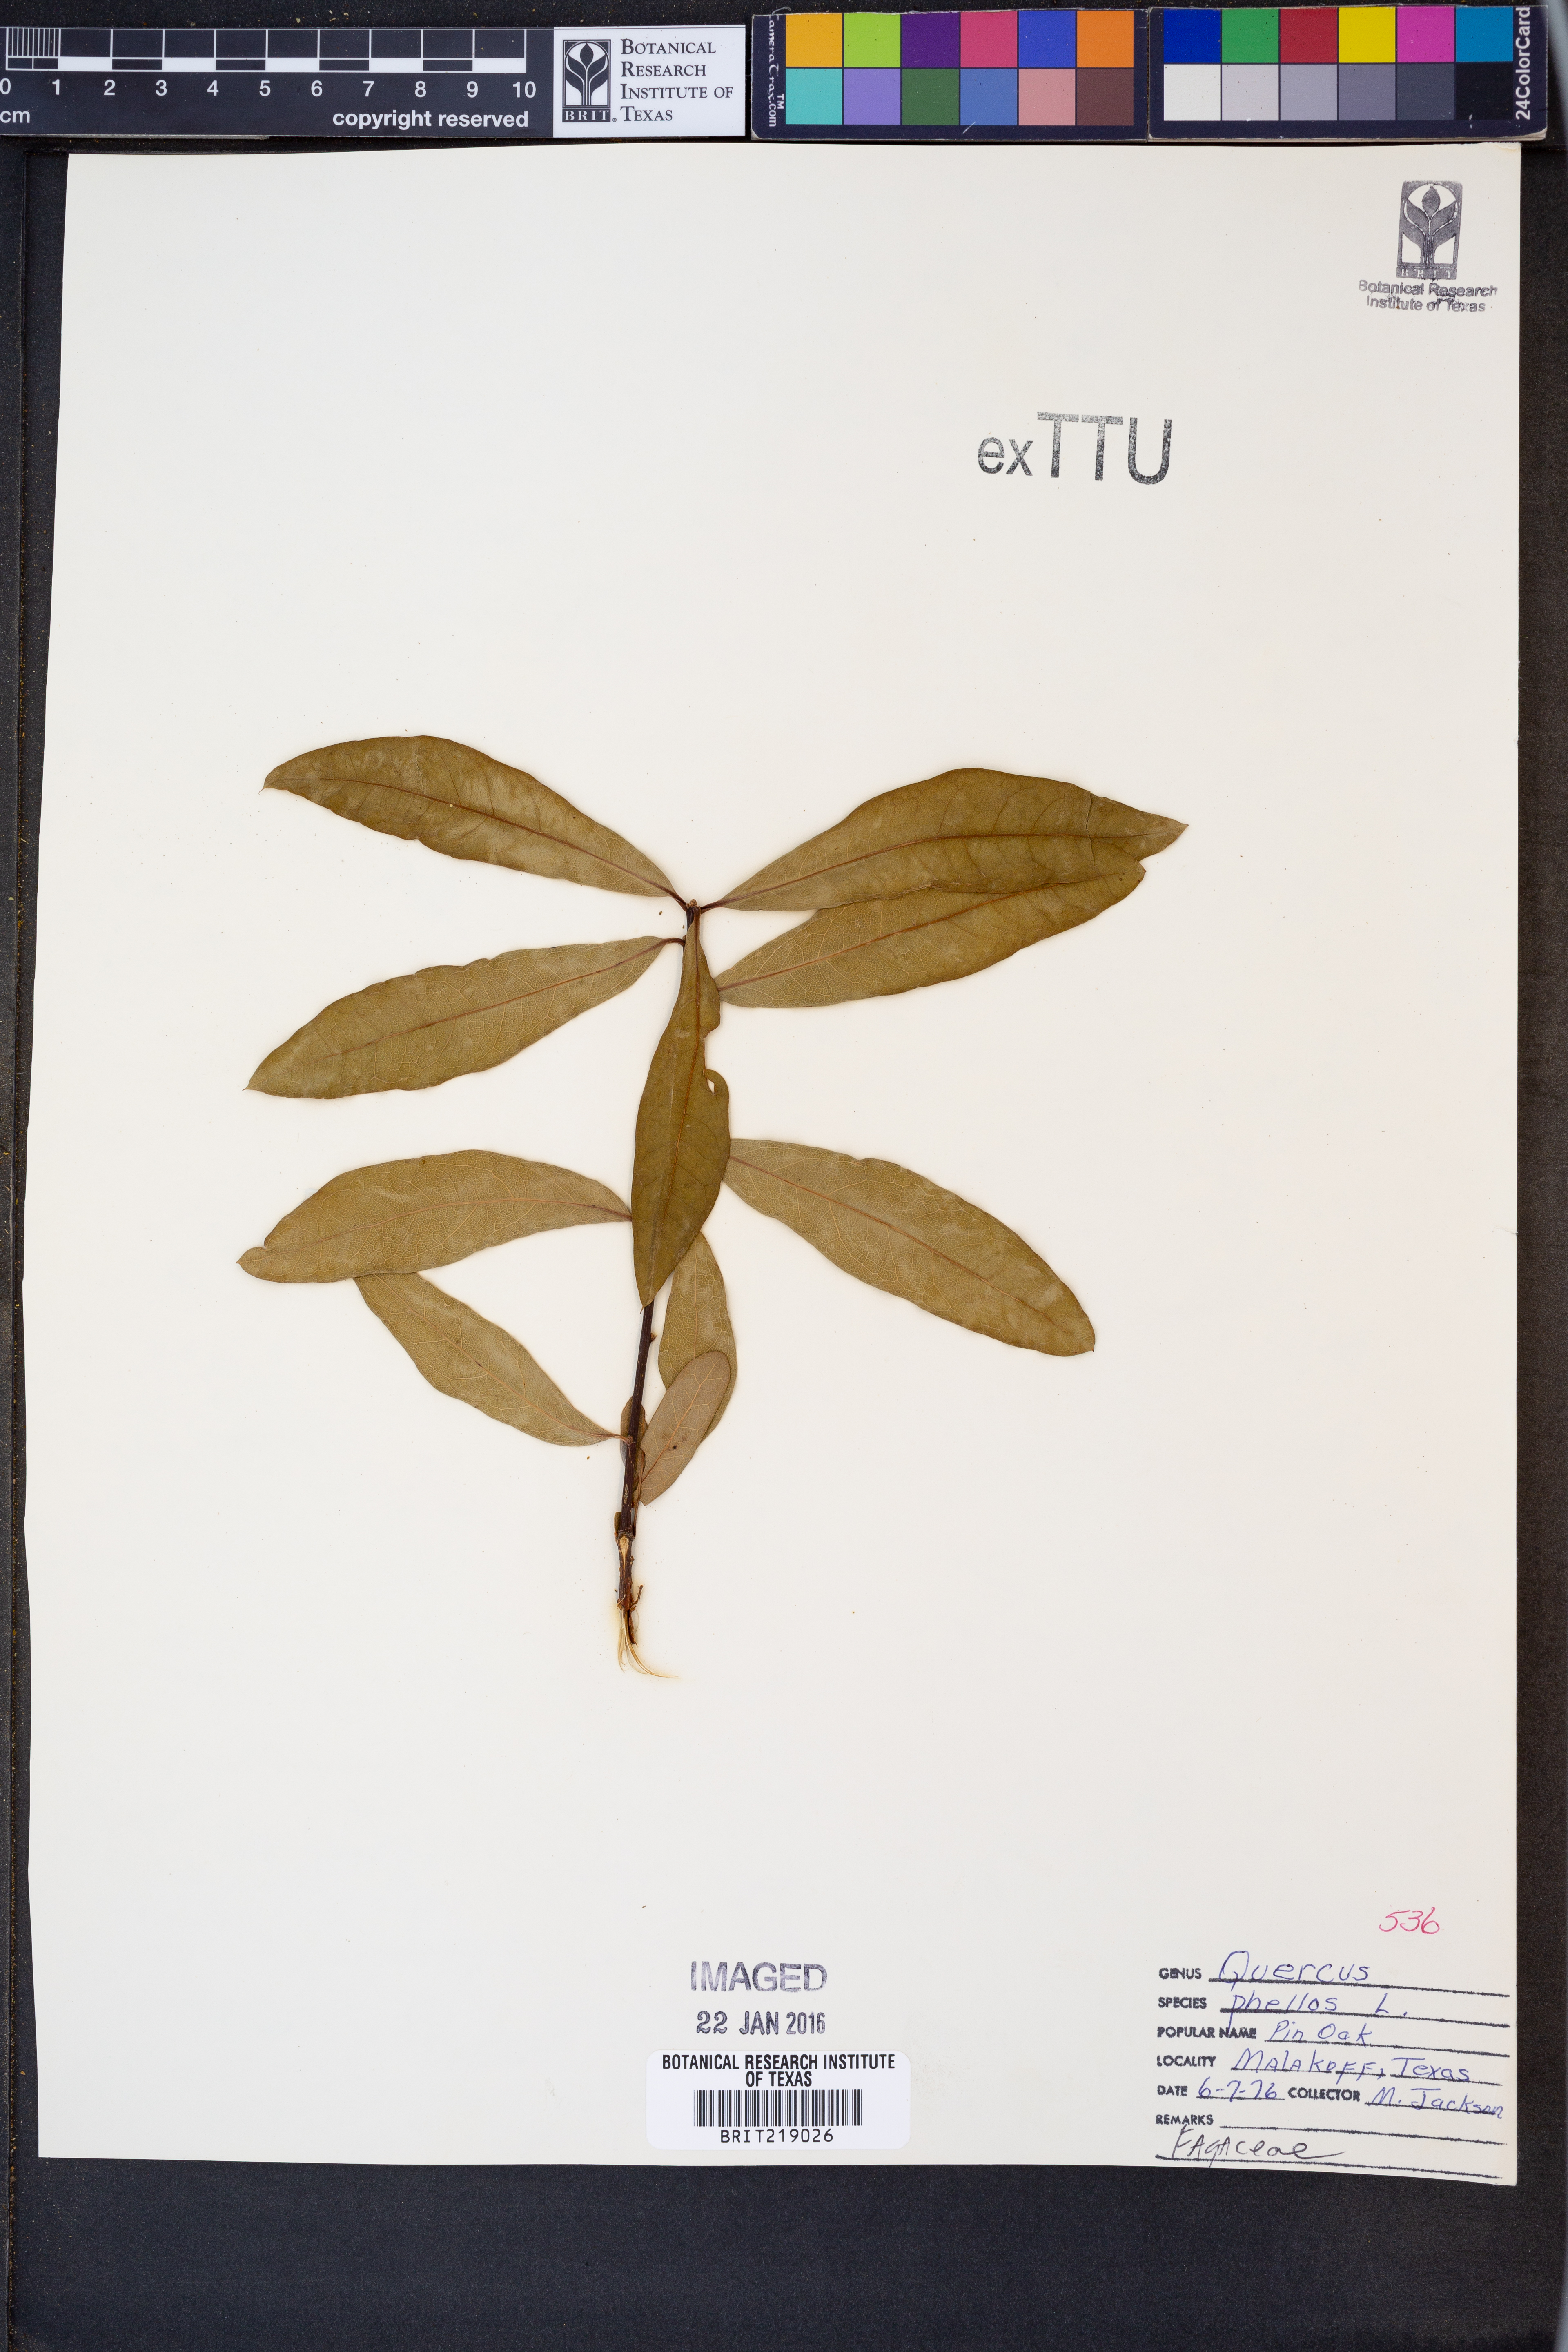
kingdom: Plantae
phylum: Tracheophyta
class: Magnoliopsida
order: Fagales
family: Fagaceae
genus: Quercus
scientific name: Quercus phellos
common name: Willow oak
